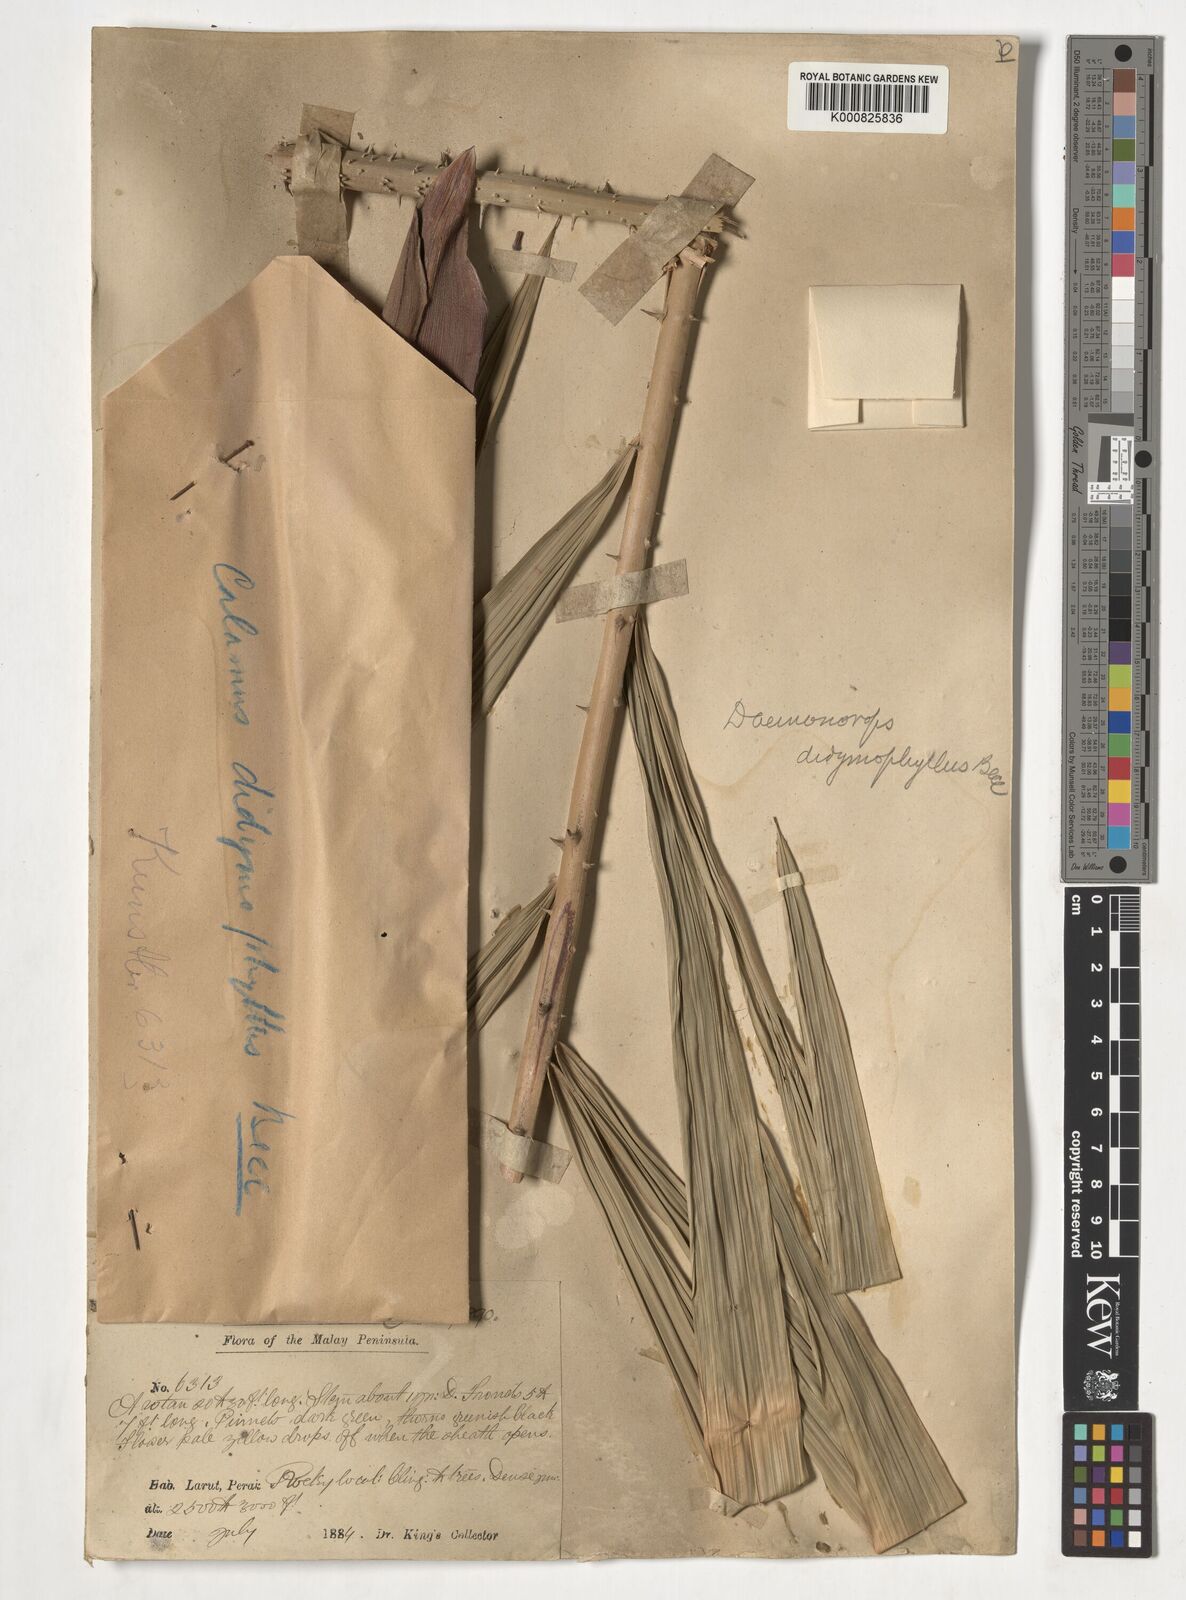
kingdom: Plantae
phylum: Tracheophyta
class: Liliopsida
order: Arecales
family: Arecaceae
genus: Calamus
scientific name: Calamus gracilipes
